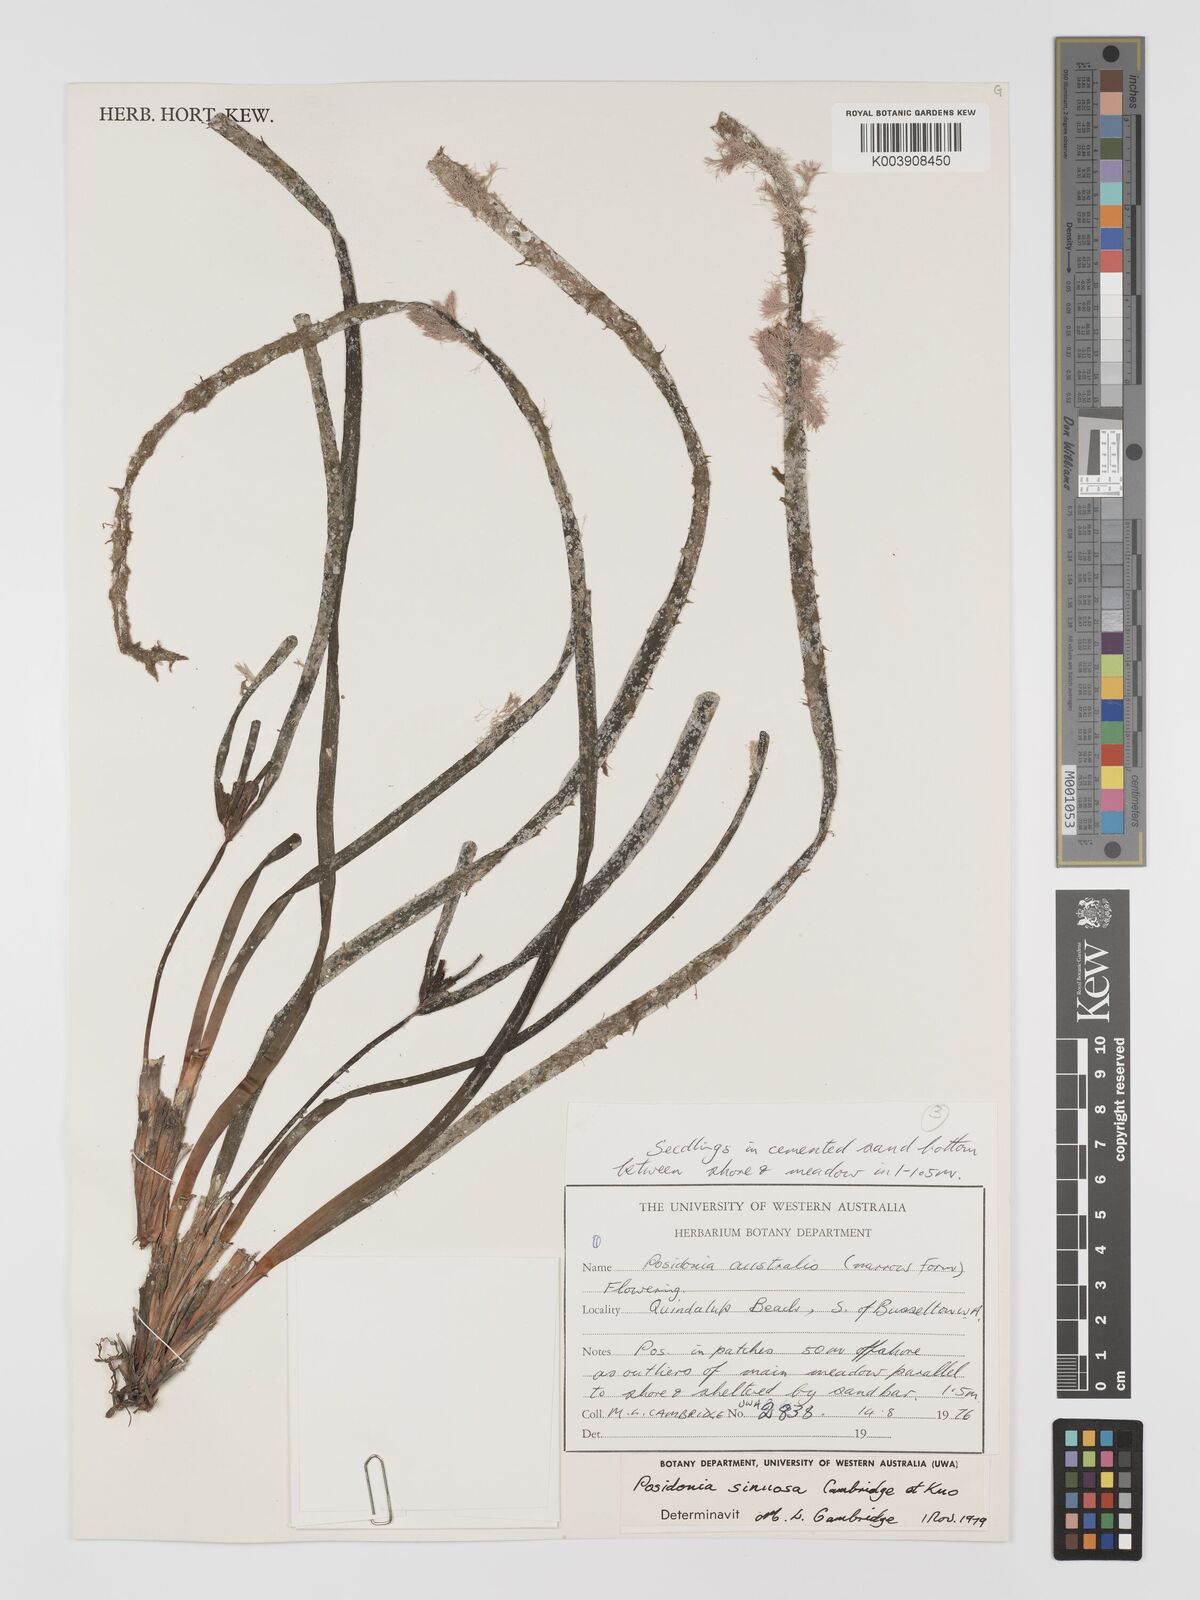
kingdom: Plantae
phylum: Tracheophyta
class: Liliopsida
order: Alismatales
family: Posidoniaceae
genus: Posidonia
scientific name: Posidonia sinuosa
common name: Species code: pn
